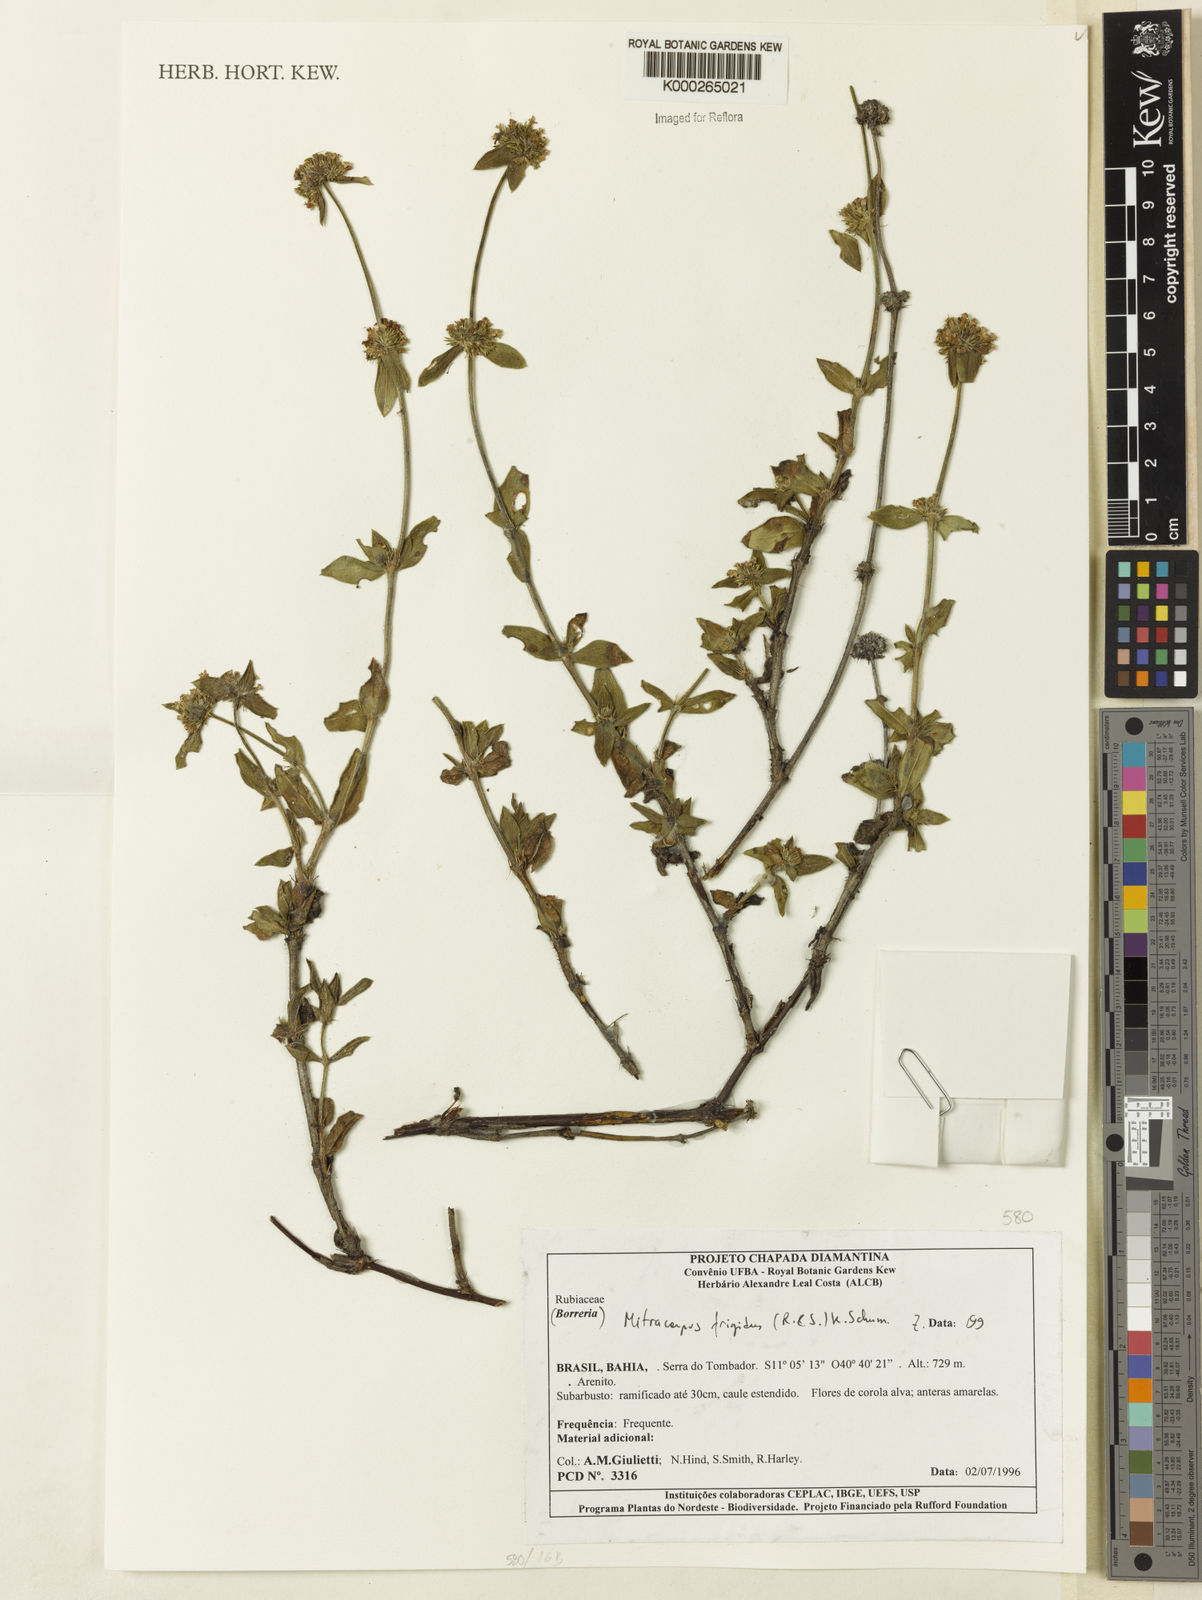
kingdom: Plantae
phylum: Tracheophyta
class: Magnoliopsida
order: Gentianales
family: Rubiaceae
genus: Mitracarpus
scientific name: Mitracarpus frigidus
